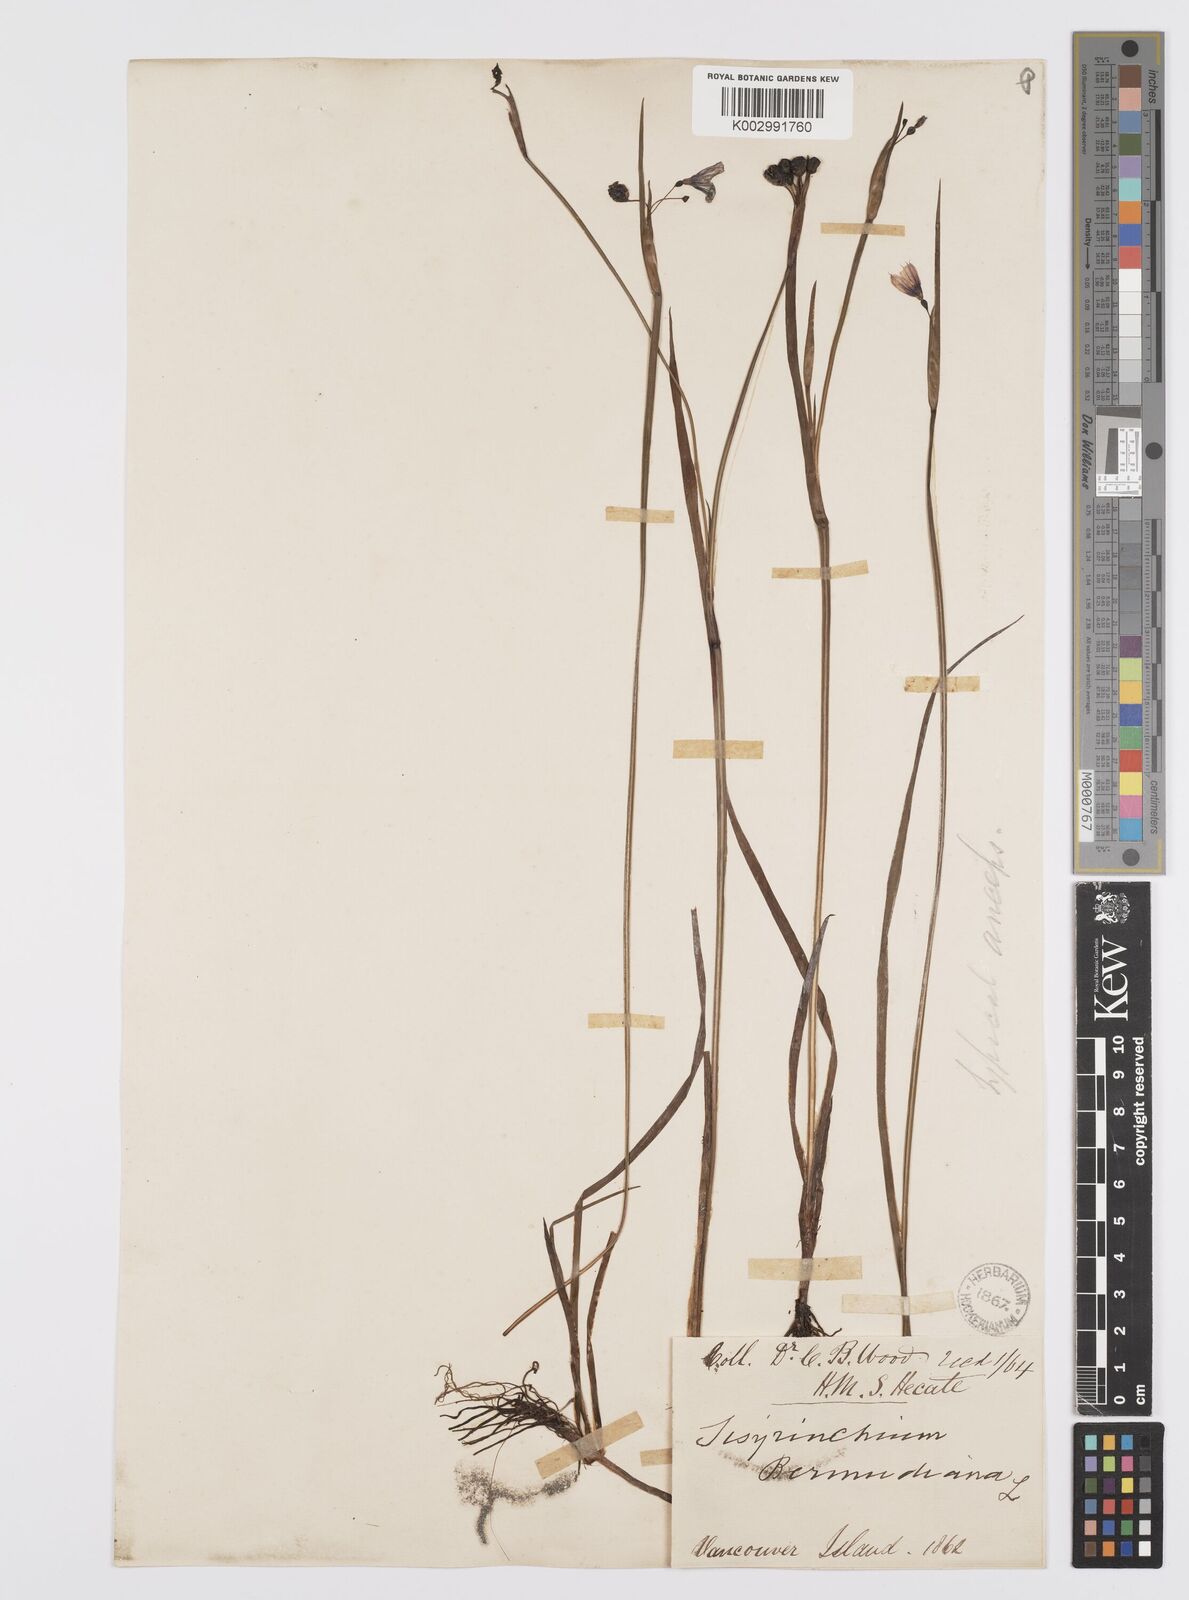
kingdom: Plantae
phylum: Tracheophyta
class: Liliopsida
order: Asparagales
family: Iridaceae
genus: Sisyrinchium
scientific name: Sisyrinchium bermudiana
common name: Blue-eyed-grass
